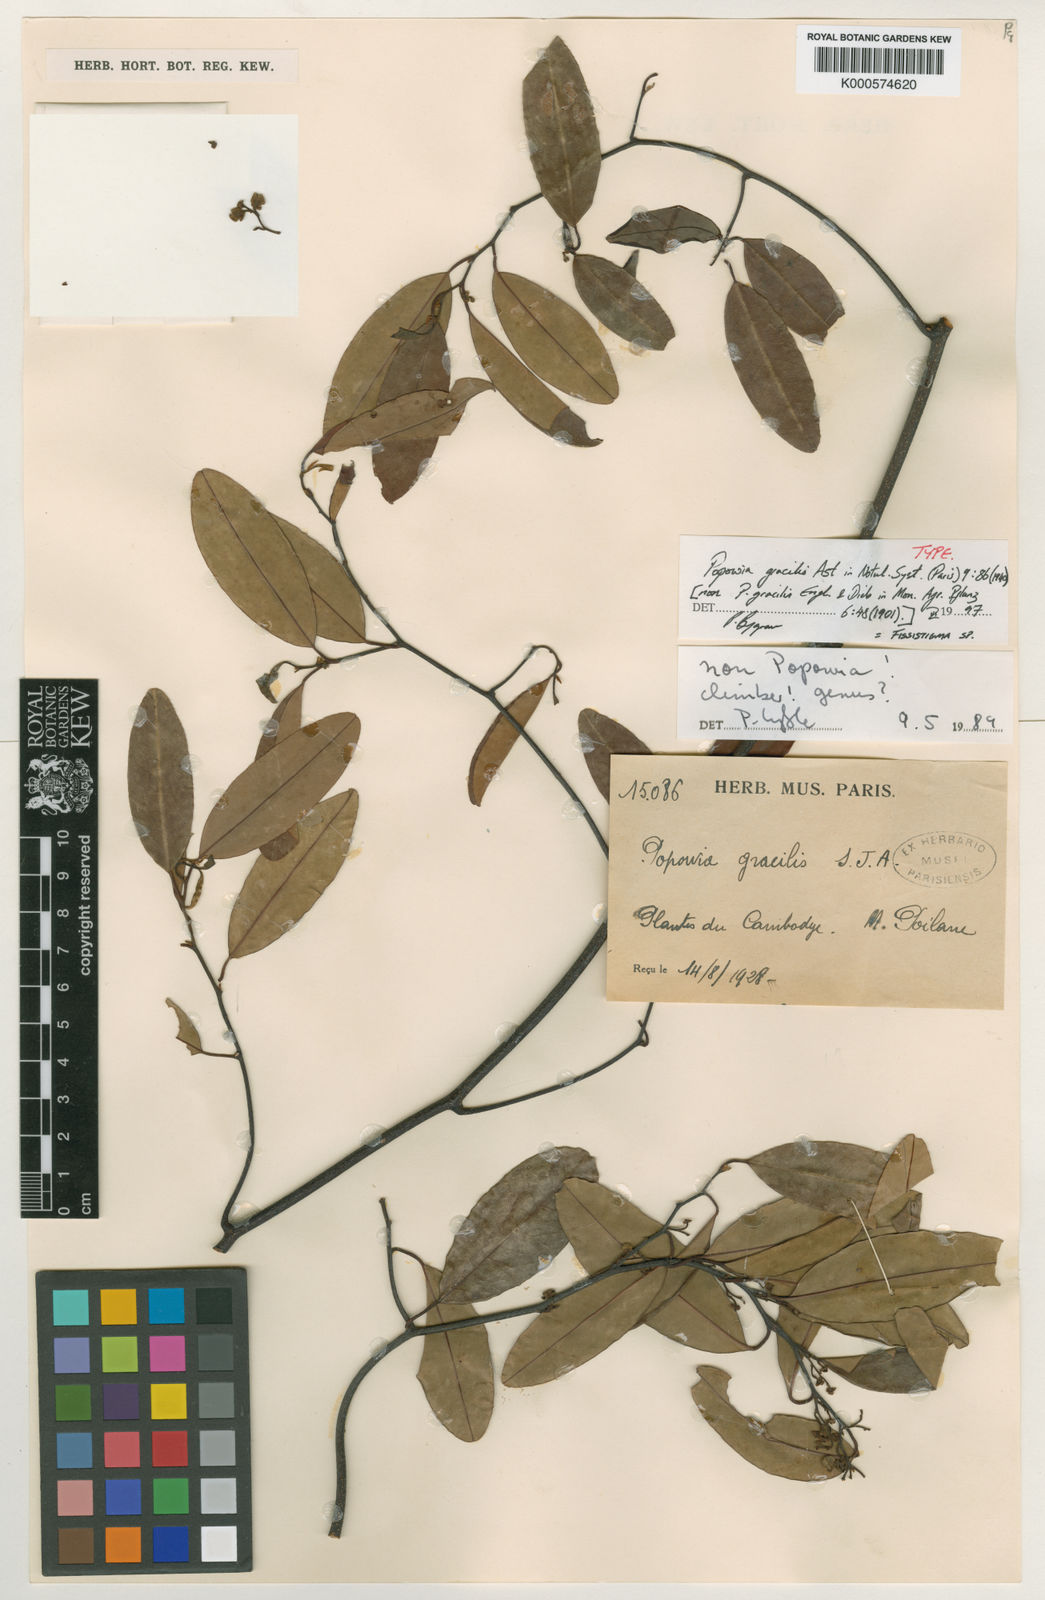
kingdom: Plantae
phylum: Tracheophyta
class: Magnoliopsida
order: Magnoliales
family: Annonaceae
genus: Fissistigma
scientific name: Fissistigma
